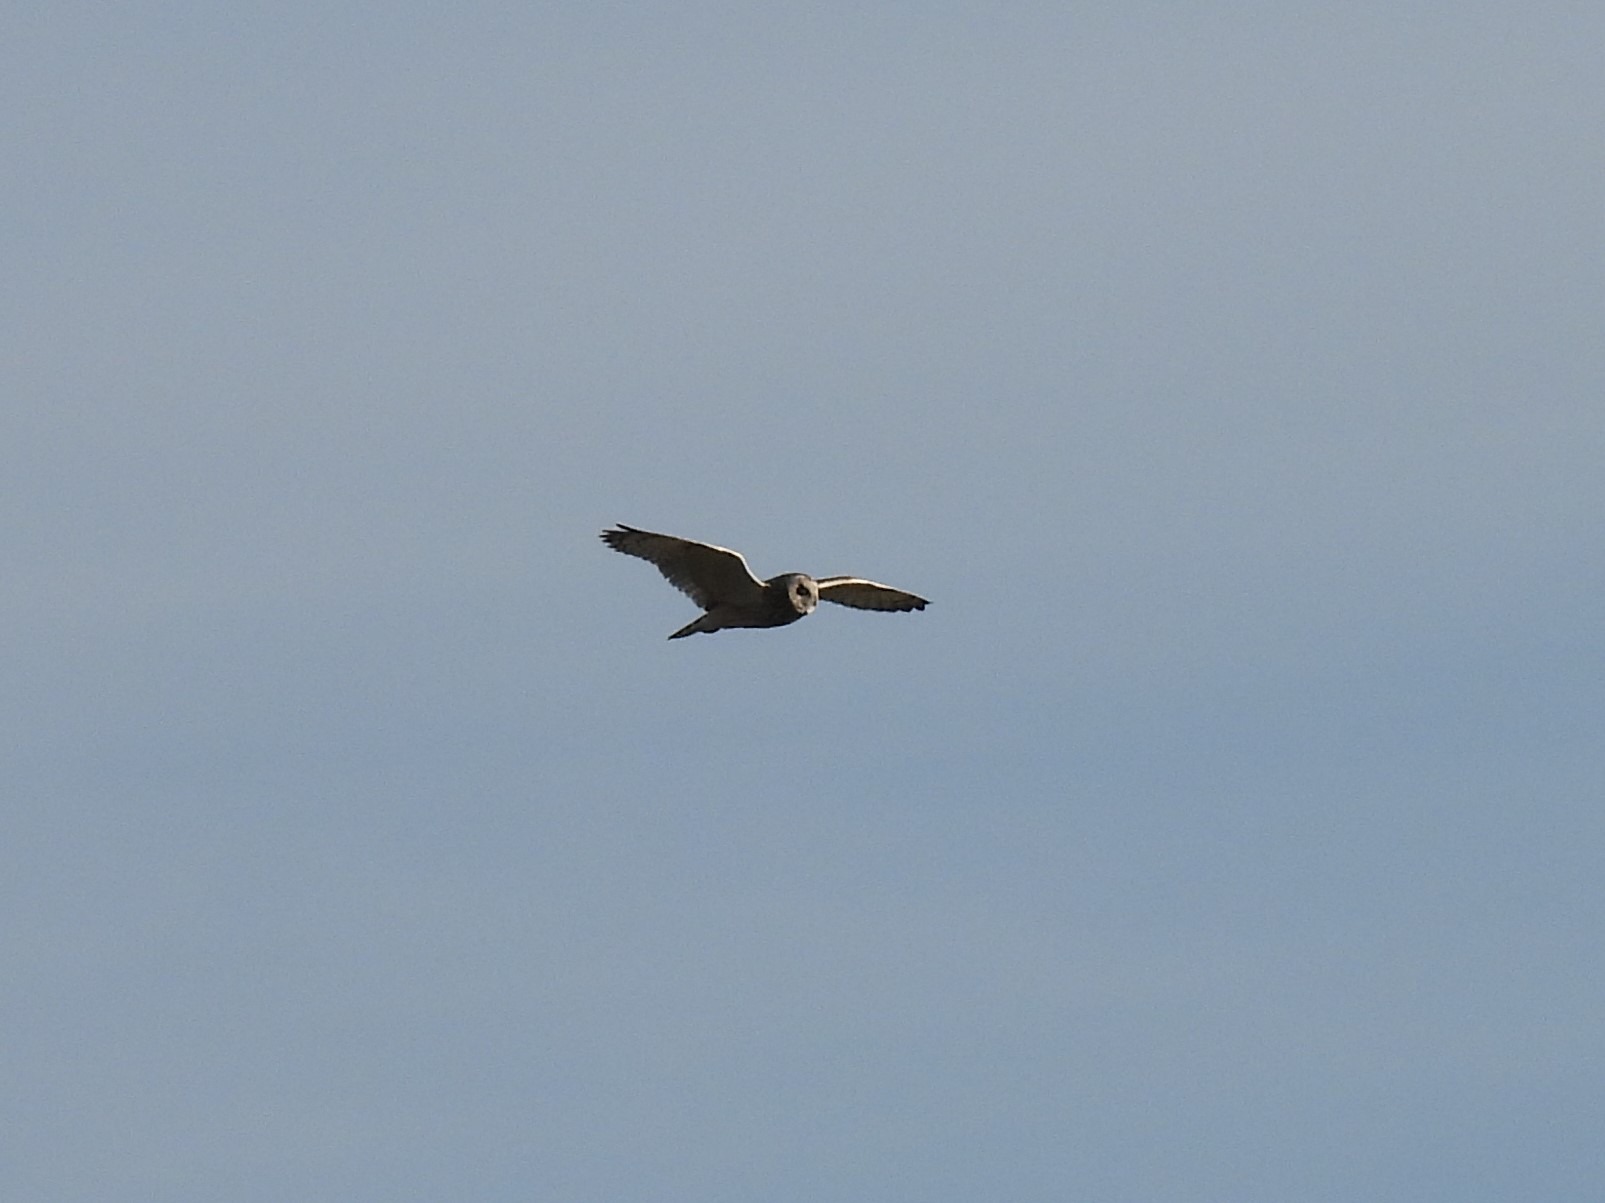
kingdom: Animalia
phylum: Chordata
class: Aves
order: Strigiformes
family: Strigidae
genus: Asio
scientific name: Asio flammeus
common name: Mosehornugle
